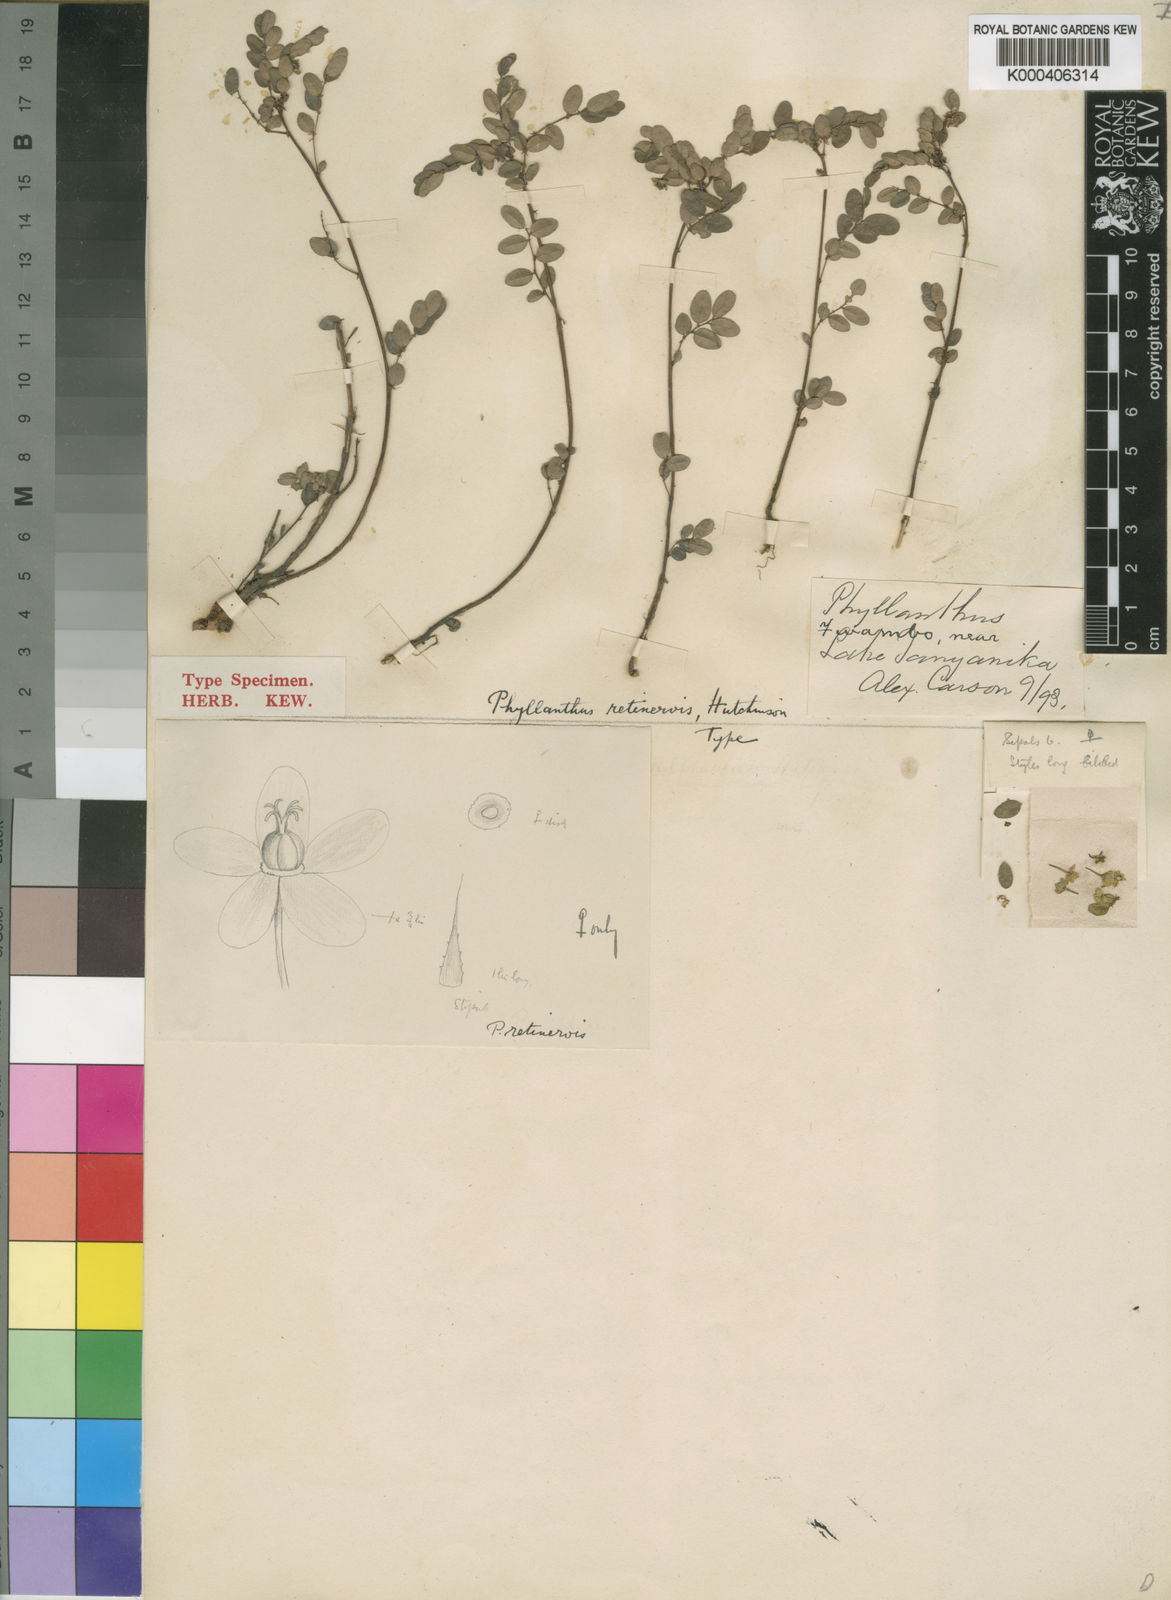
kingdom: Plantae
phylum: Tracheophyta
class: Magnoliopsida
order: Malpighiales
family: Phyllanthaceae
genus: Phyllanthus
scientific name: Phyllanthus retinervis
